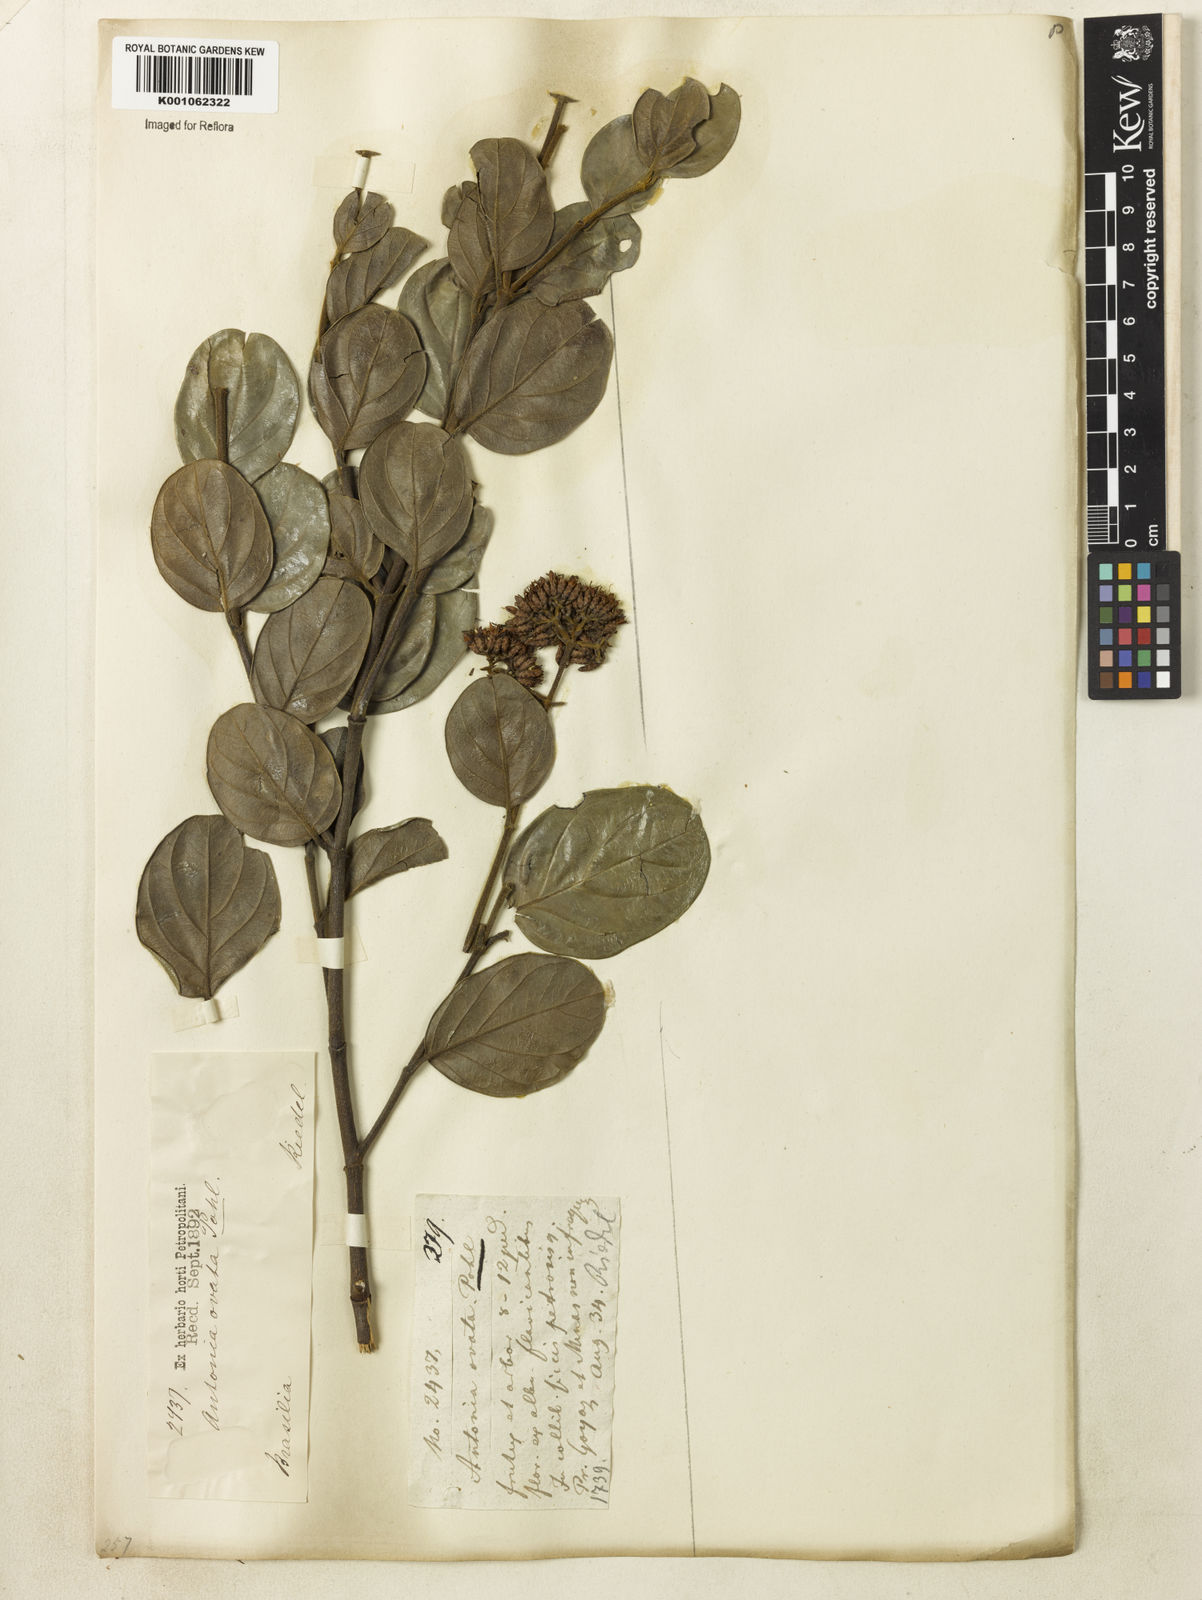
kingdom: Plantae
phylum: Tracheophyta
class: Magnoliopsida
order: Gentianales
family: Loganiaceae
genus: Antonia
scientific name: Antonia ovata
